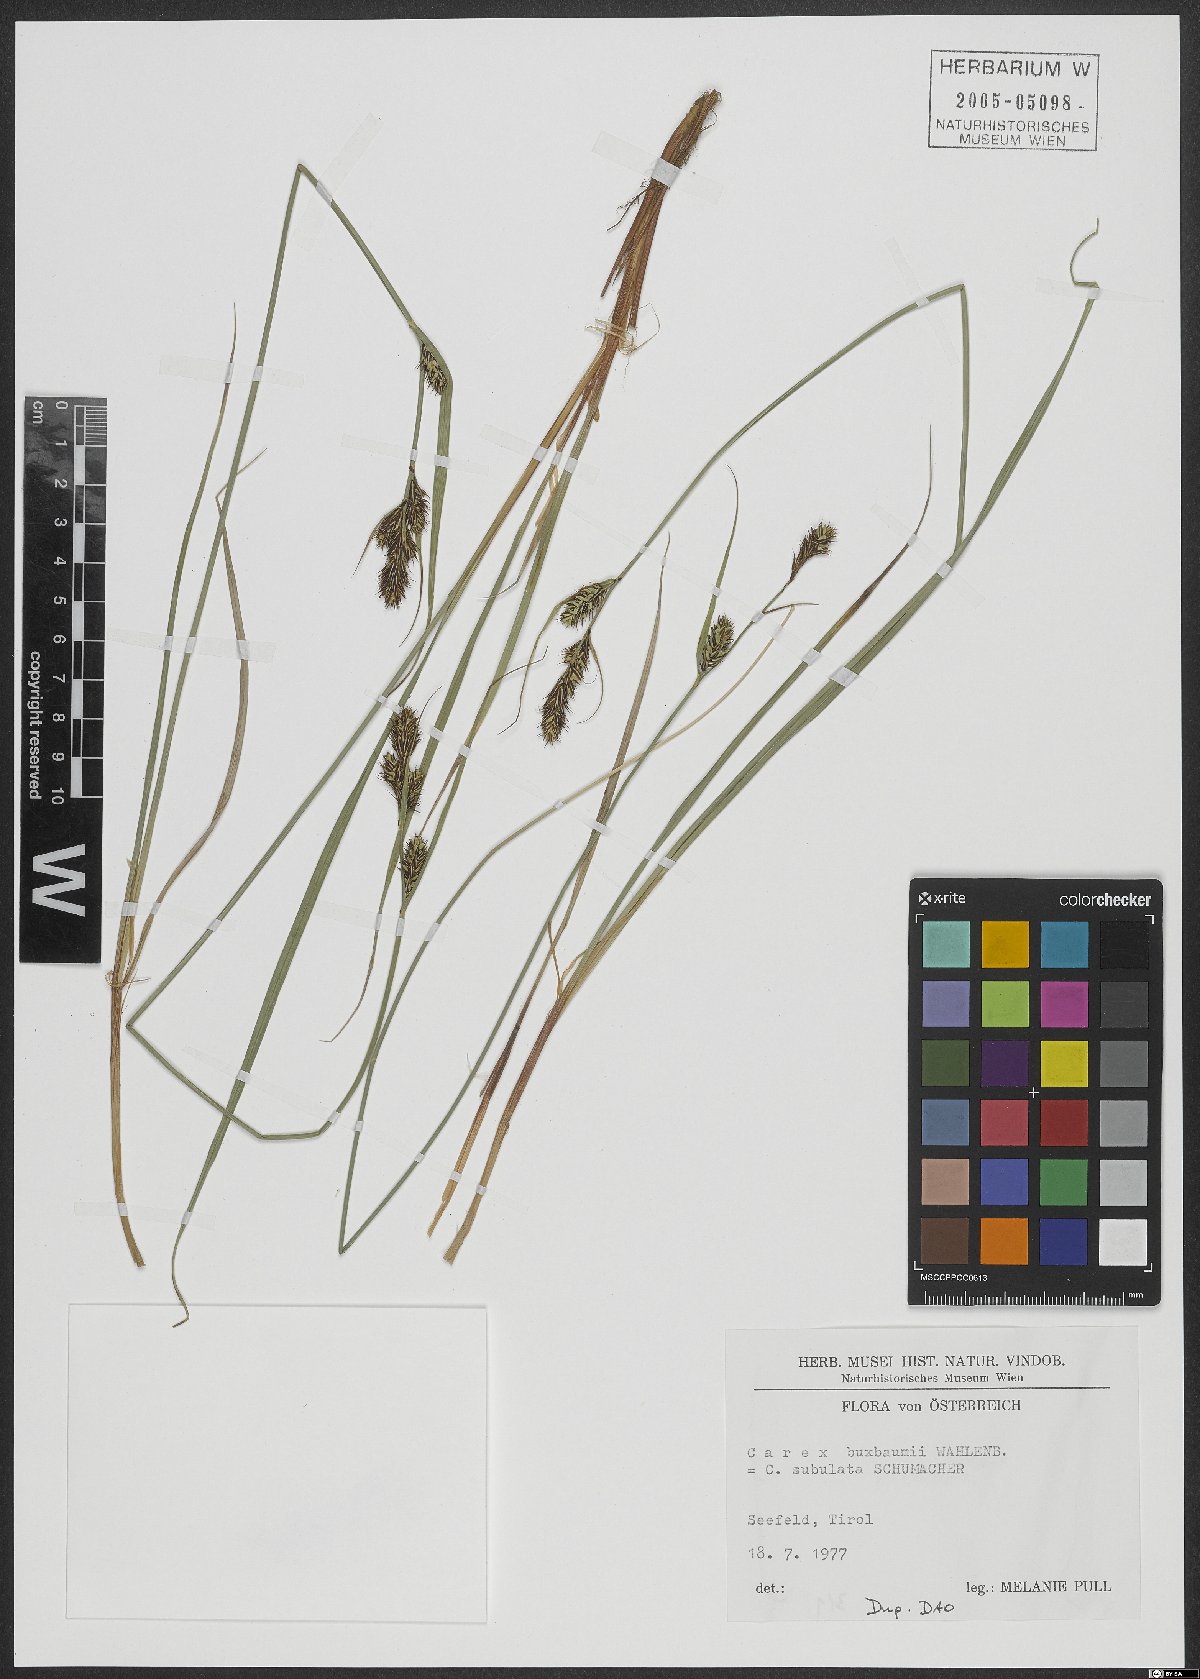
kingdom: Plantae
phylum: Tracheophyta
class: Liliopsida
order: Poales
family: Cyperaceae
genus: Carex
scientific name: Carex buxbaumii
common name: Club sedge
